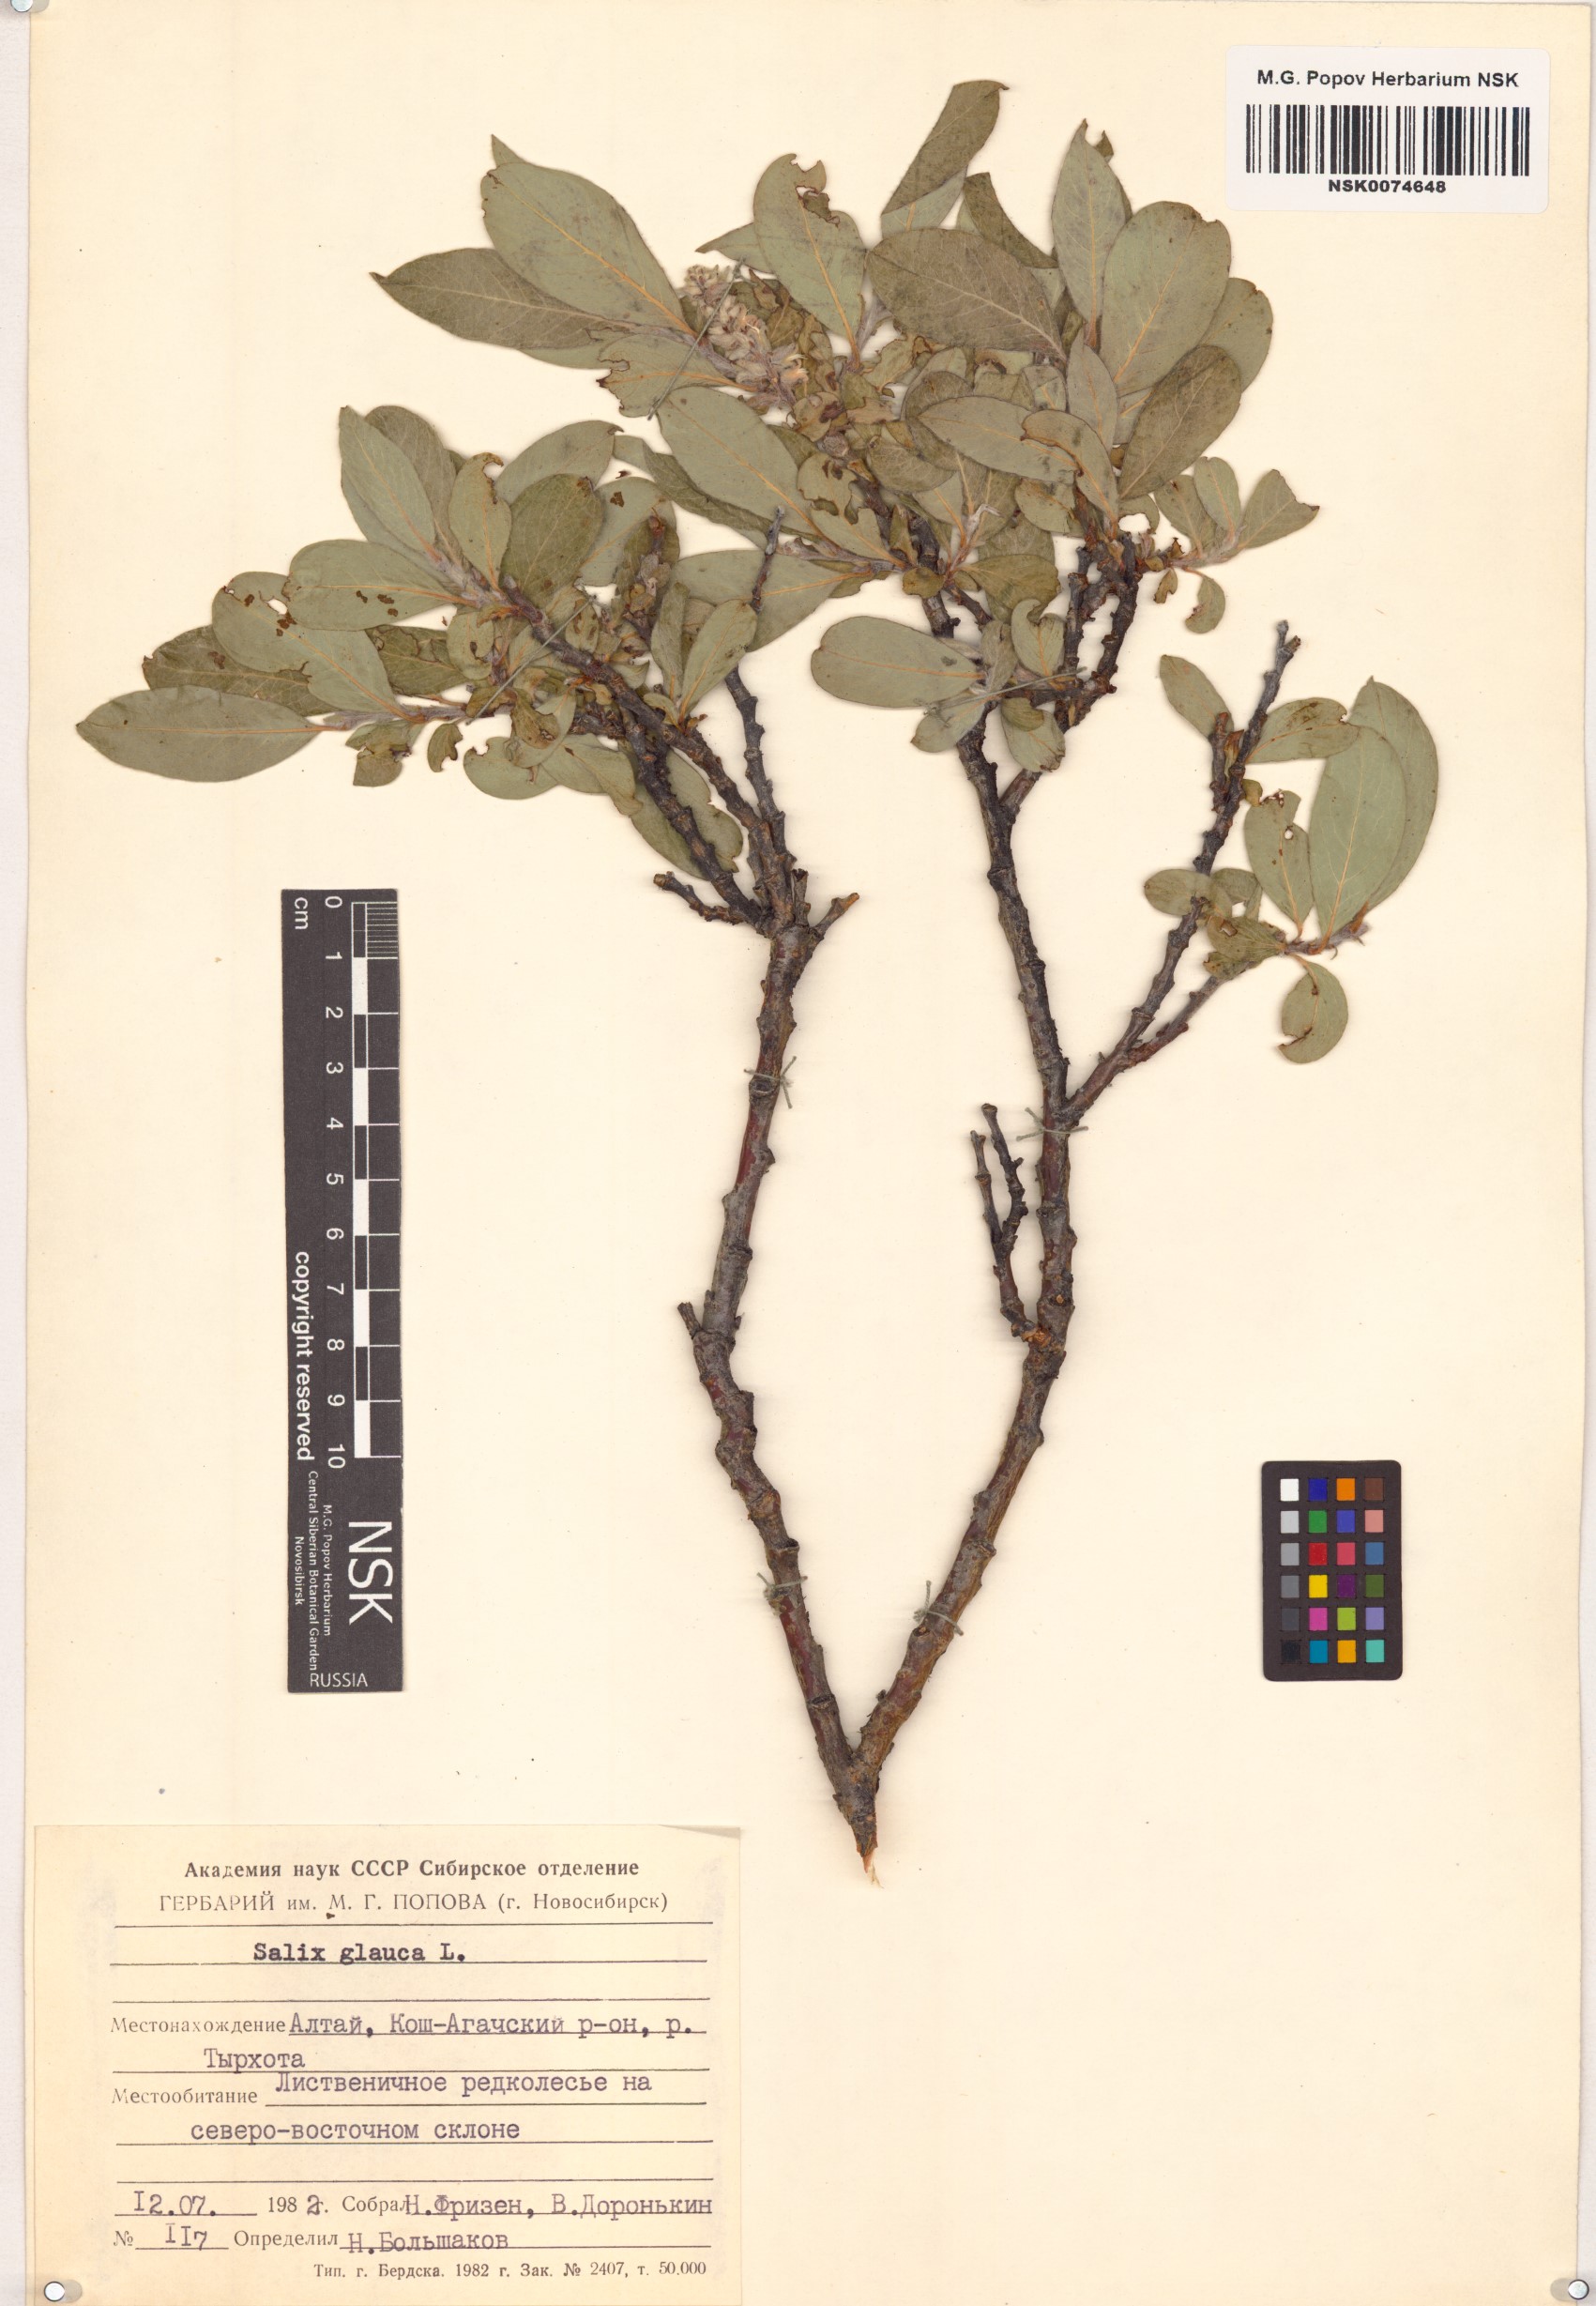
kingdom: Plantae
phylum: Tracheophyta
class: Magnoliopsida
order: Malpighiales
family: Salicaceae
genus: Salix
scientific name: Salix glauca
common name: Glaucous willow
